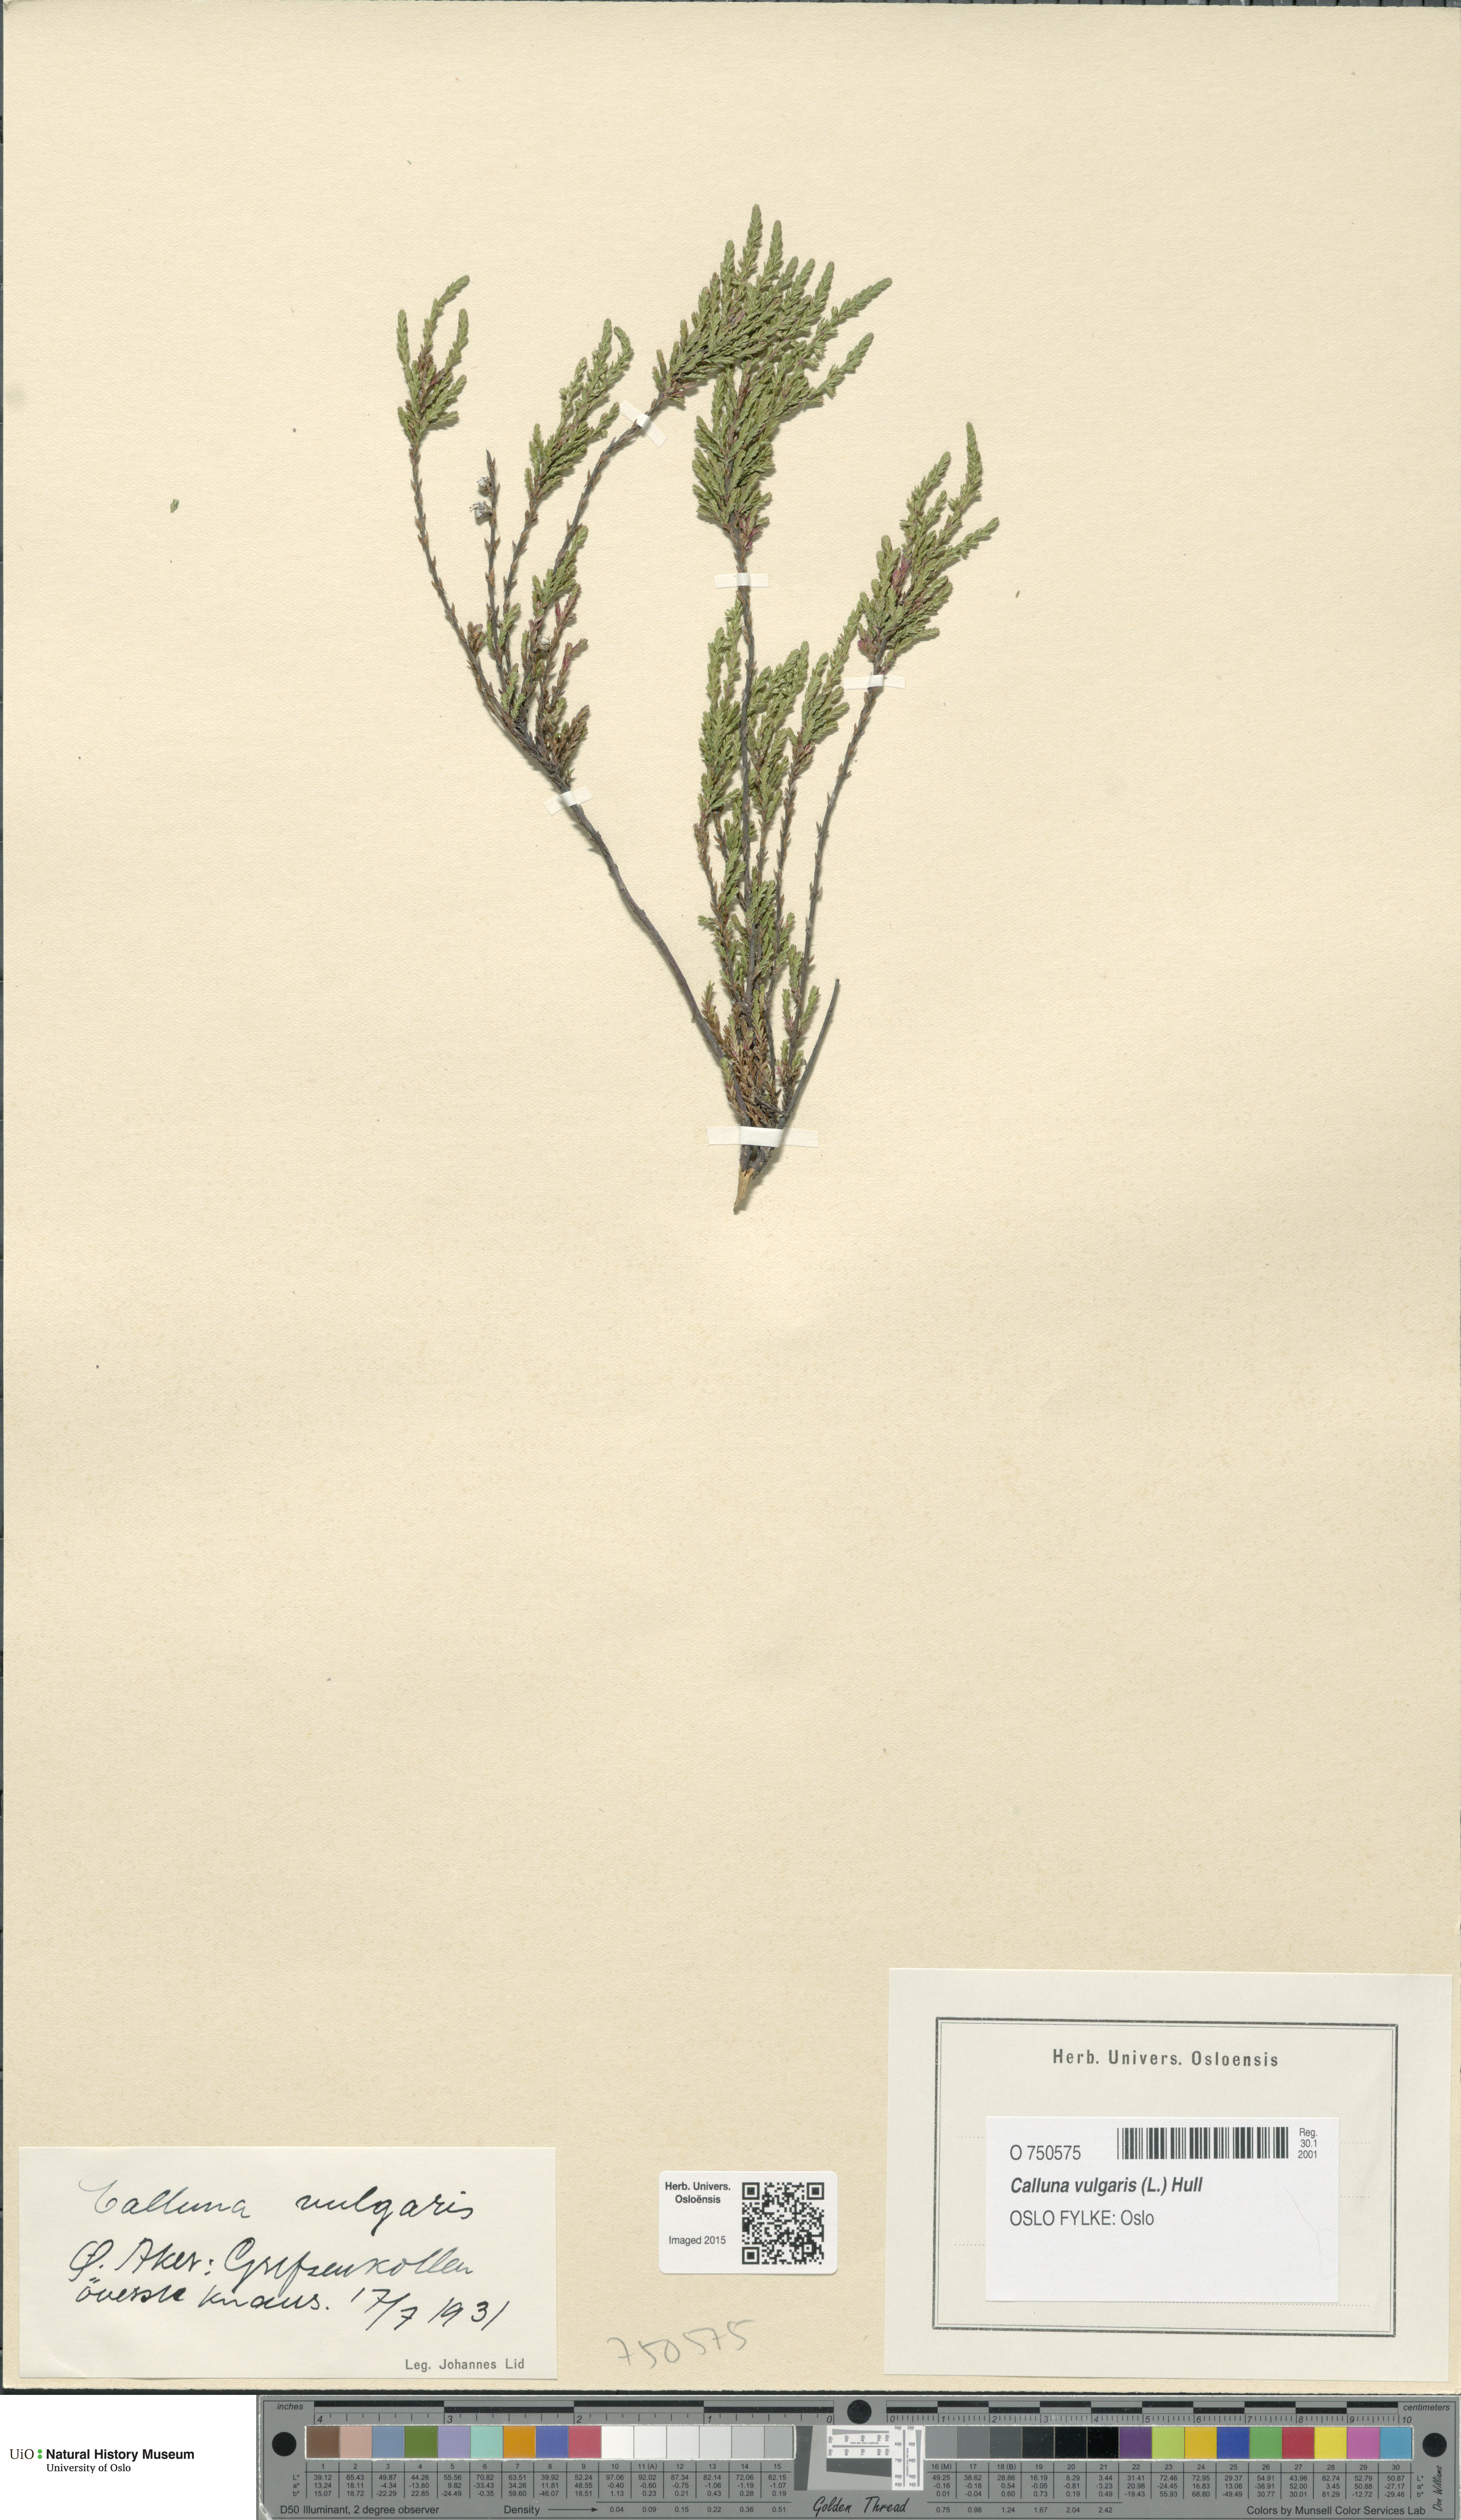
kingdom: Plantae
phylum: Tracheophyta
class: Magnoliopsida
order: Ericales
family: Ericaceae
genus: Calluna
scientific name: Calluna vulgaris
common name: Heather
